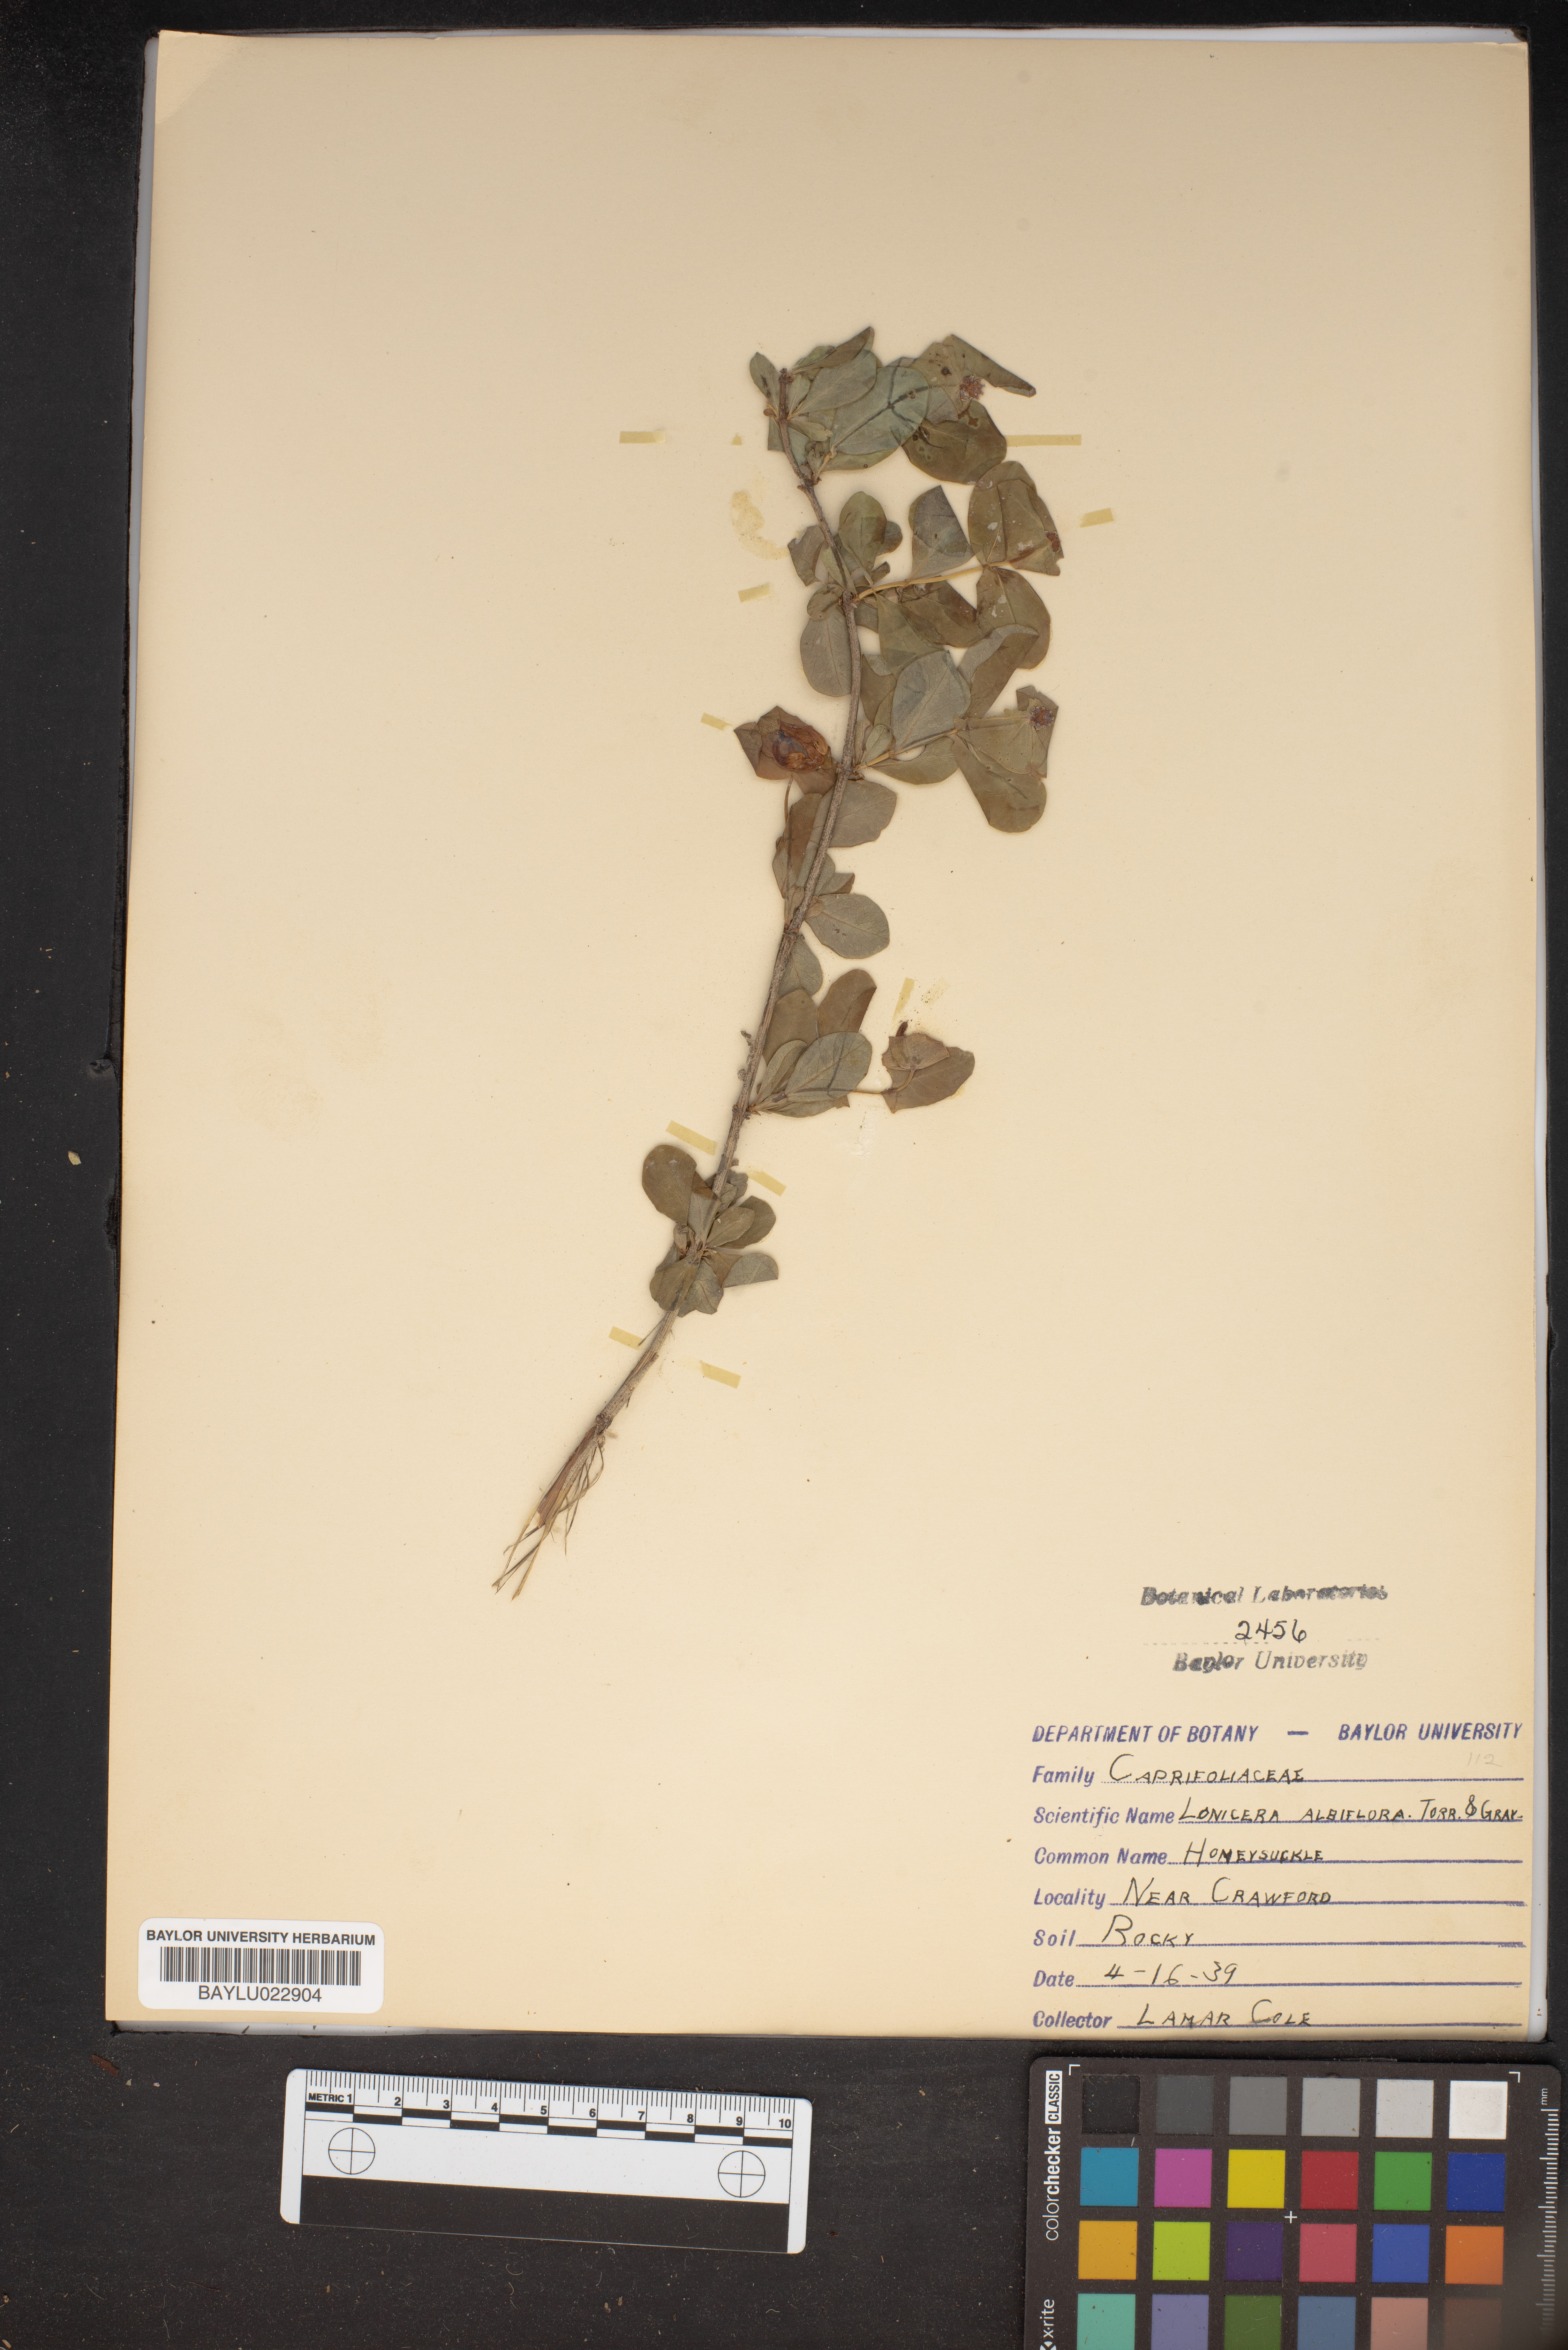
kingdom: Plantae
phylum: Tracheophyta
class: Magnoliopsida
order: Dipsacales
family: Caprifoliaceae
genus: Lonicera
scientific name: Lonicera albiflora
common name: White honeysuckle
